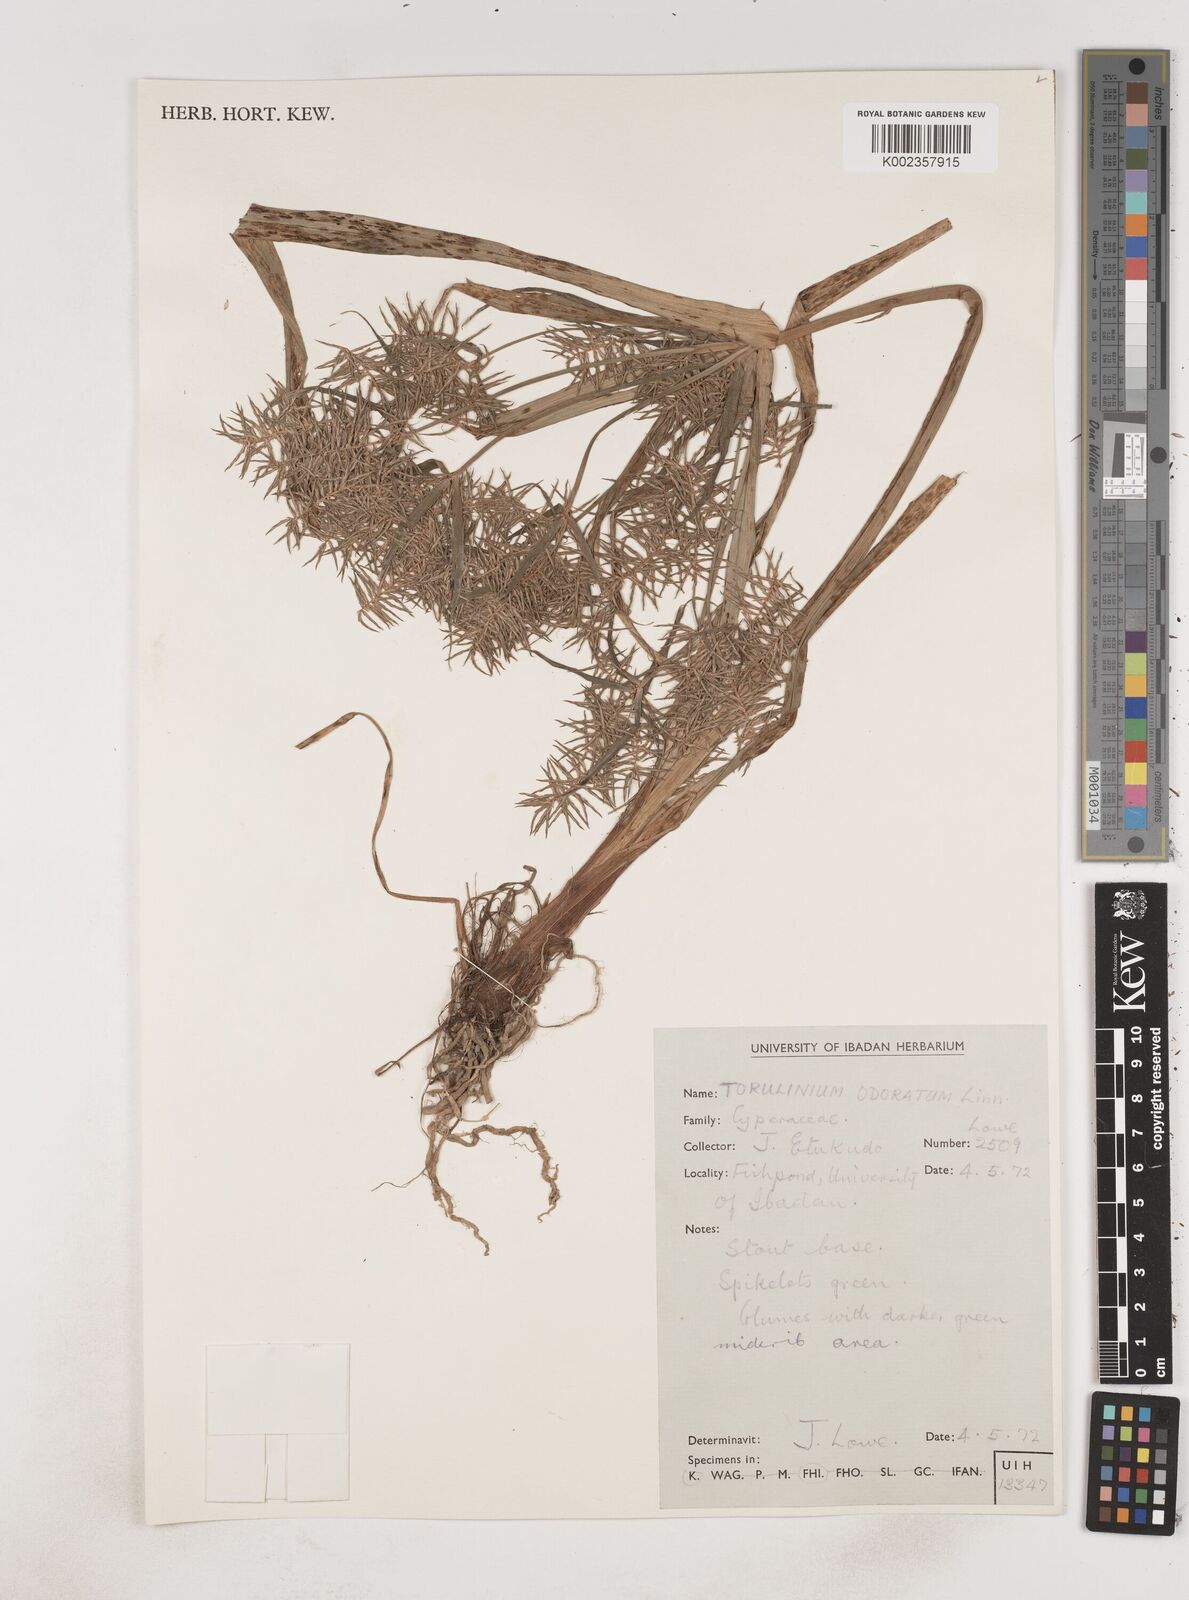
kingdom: Plantae
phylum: Tracheophyta
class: Liliopsida
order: Poales
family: Cyperaceae
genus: Cyperus
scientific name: Cyperus odoratus
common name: Fragrant flatsedge
